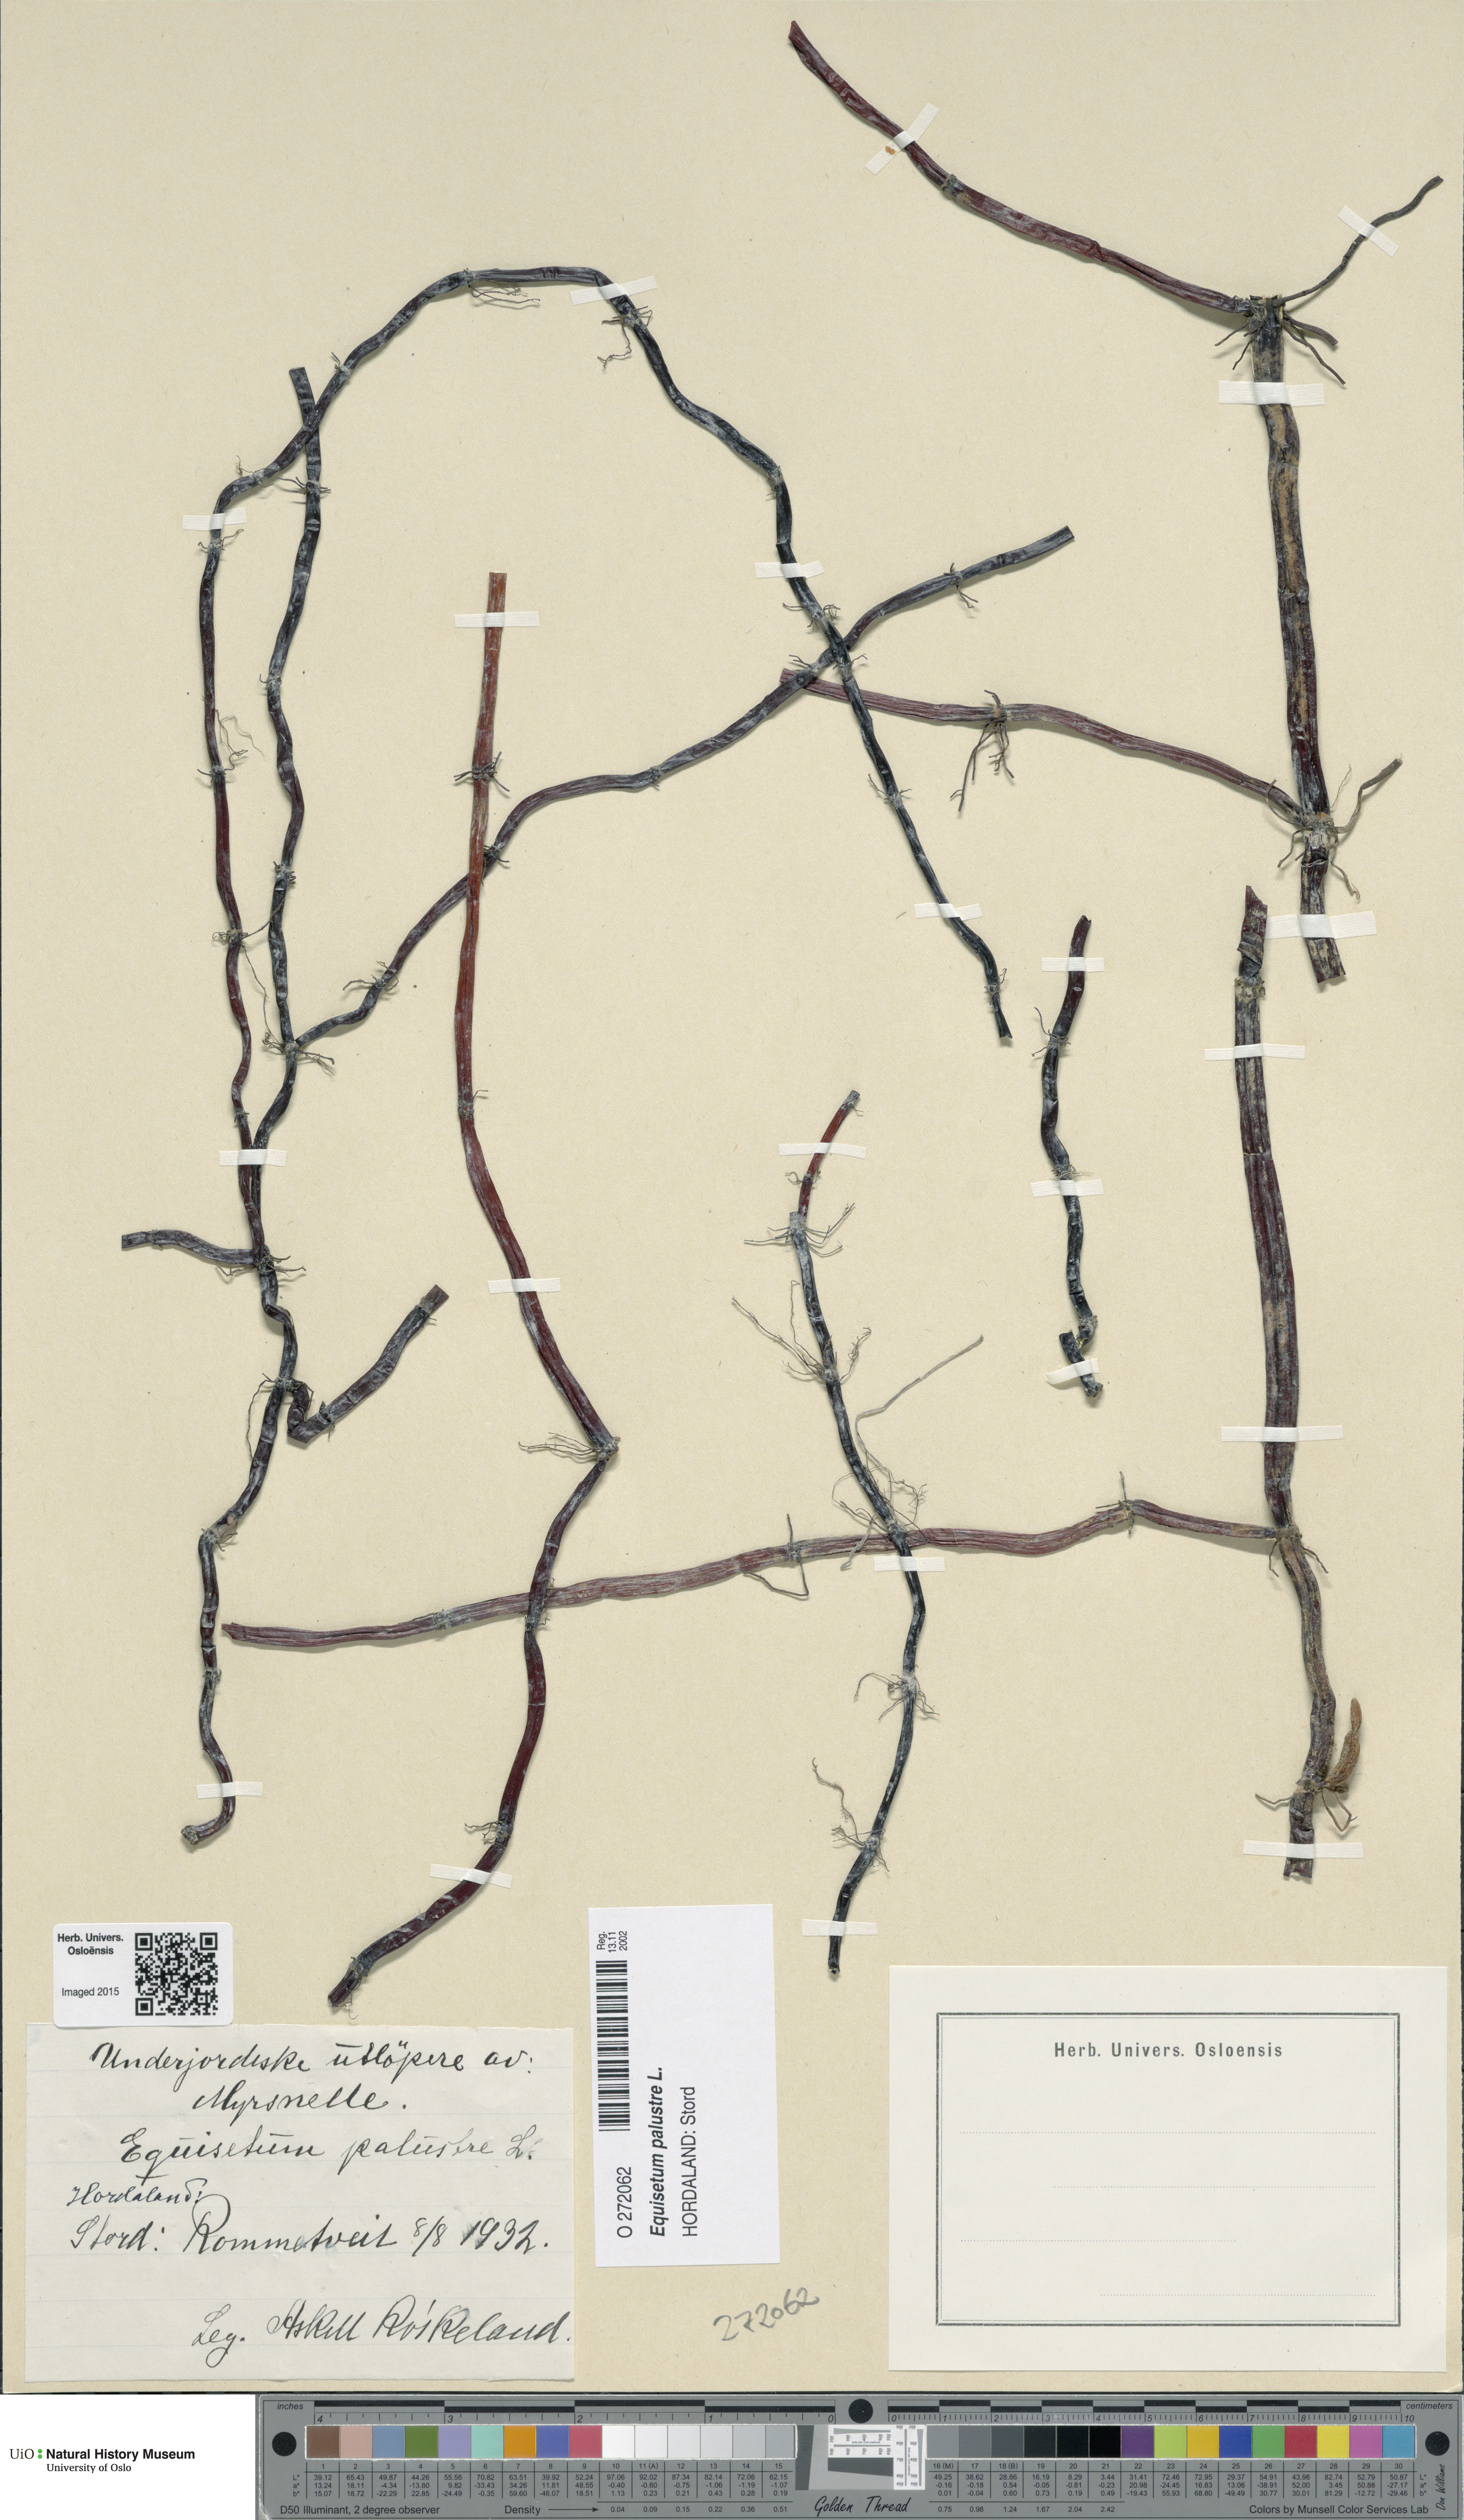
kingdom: Plantae
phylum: Tracheophyta
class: Polypodiopsida
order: Equisetales
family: Equisetaceae
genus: Equisetum
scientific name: Equisetum palustre
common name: Marsh horsetail
